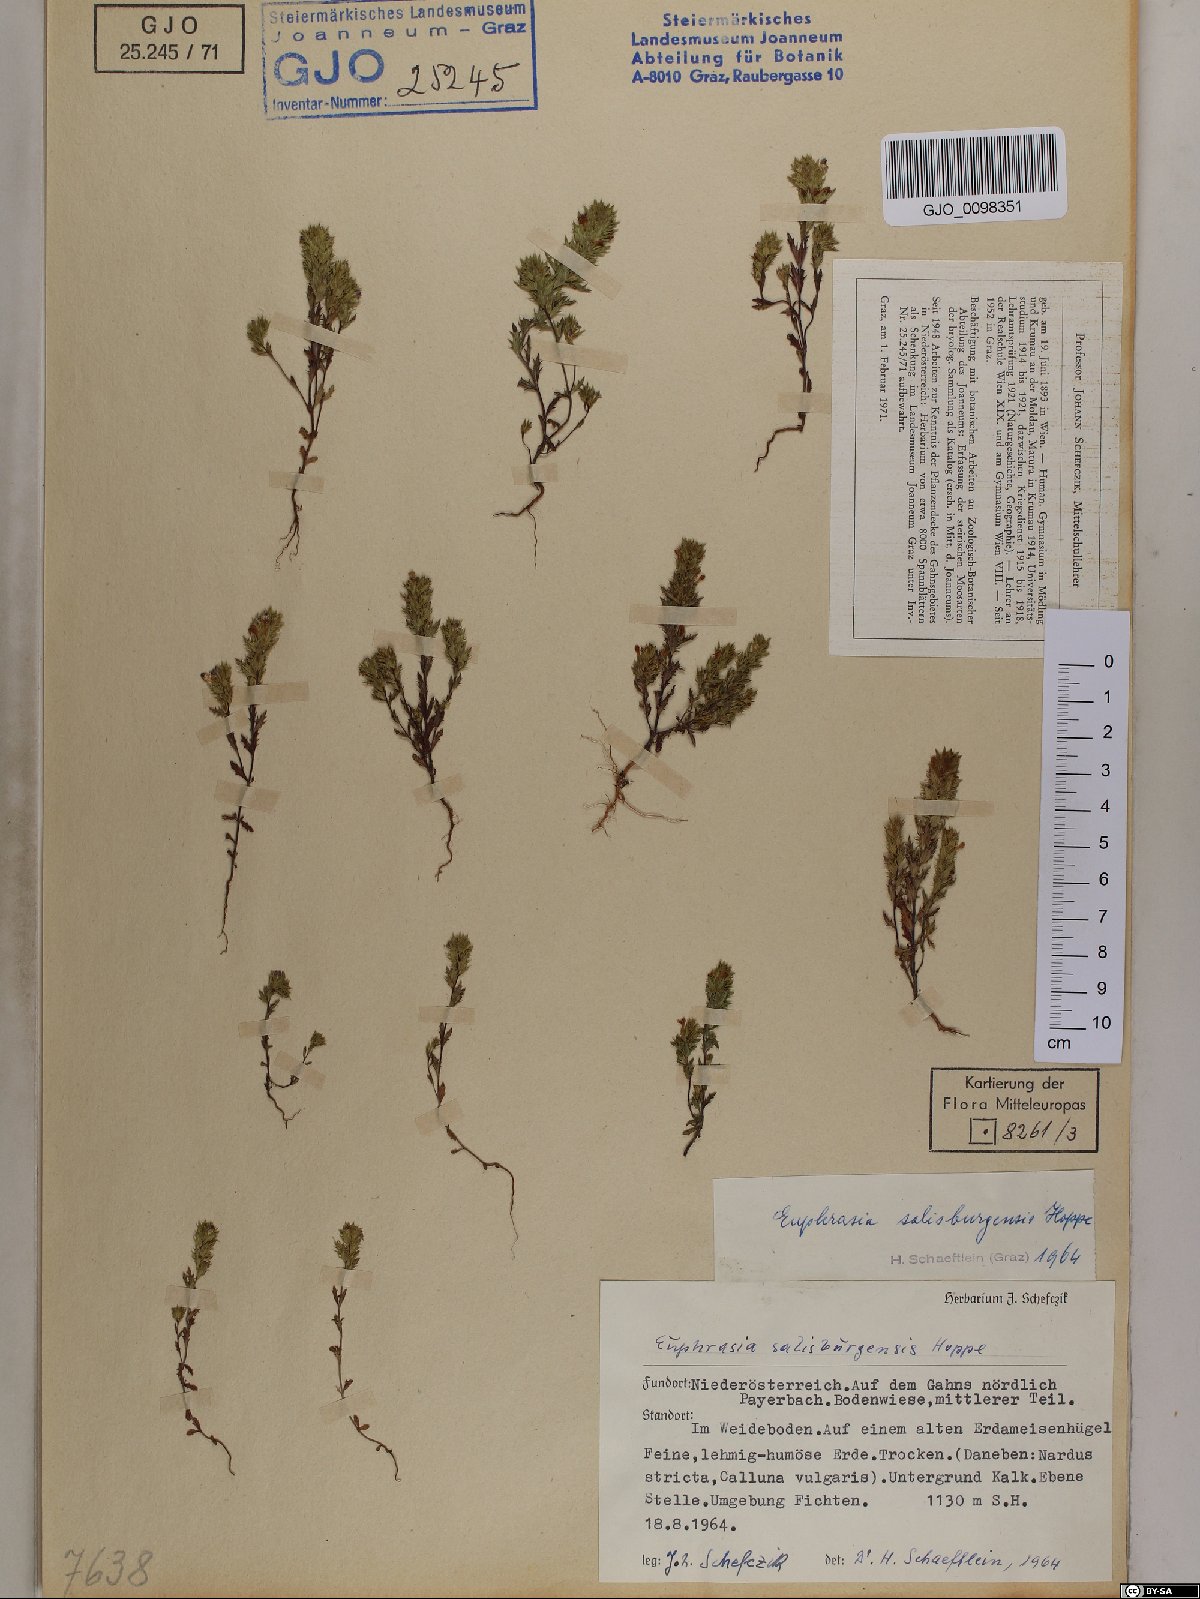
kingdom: Plantae
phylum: Tracheophyta
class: Magnoliopsida
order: Lamiales
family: Orobanchaceae
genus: Euphrasia
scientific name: Euphrasia salisburgensis
